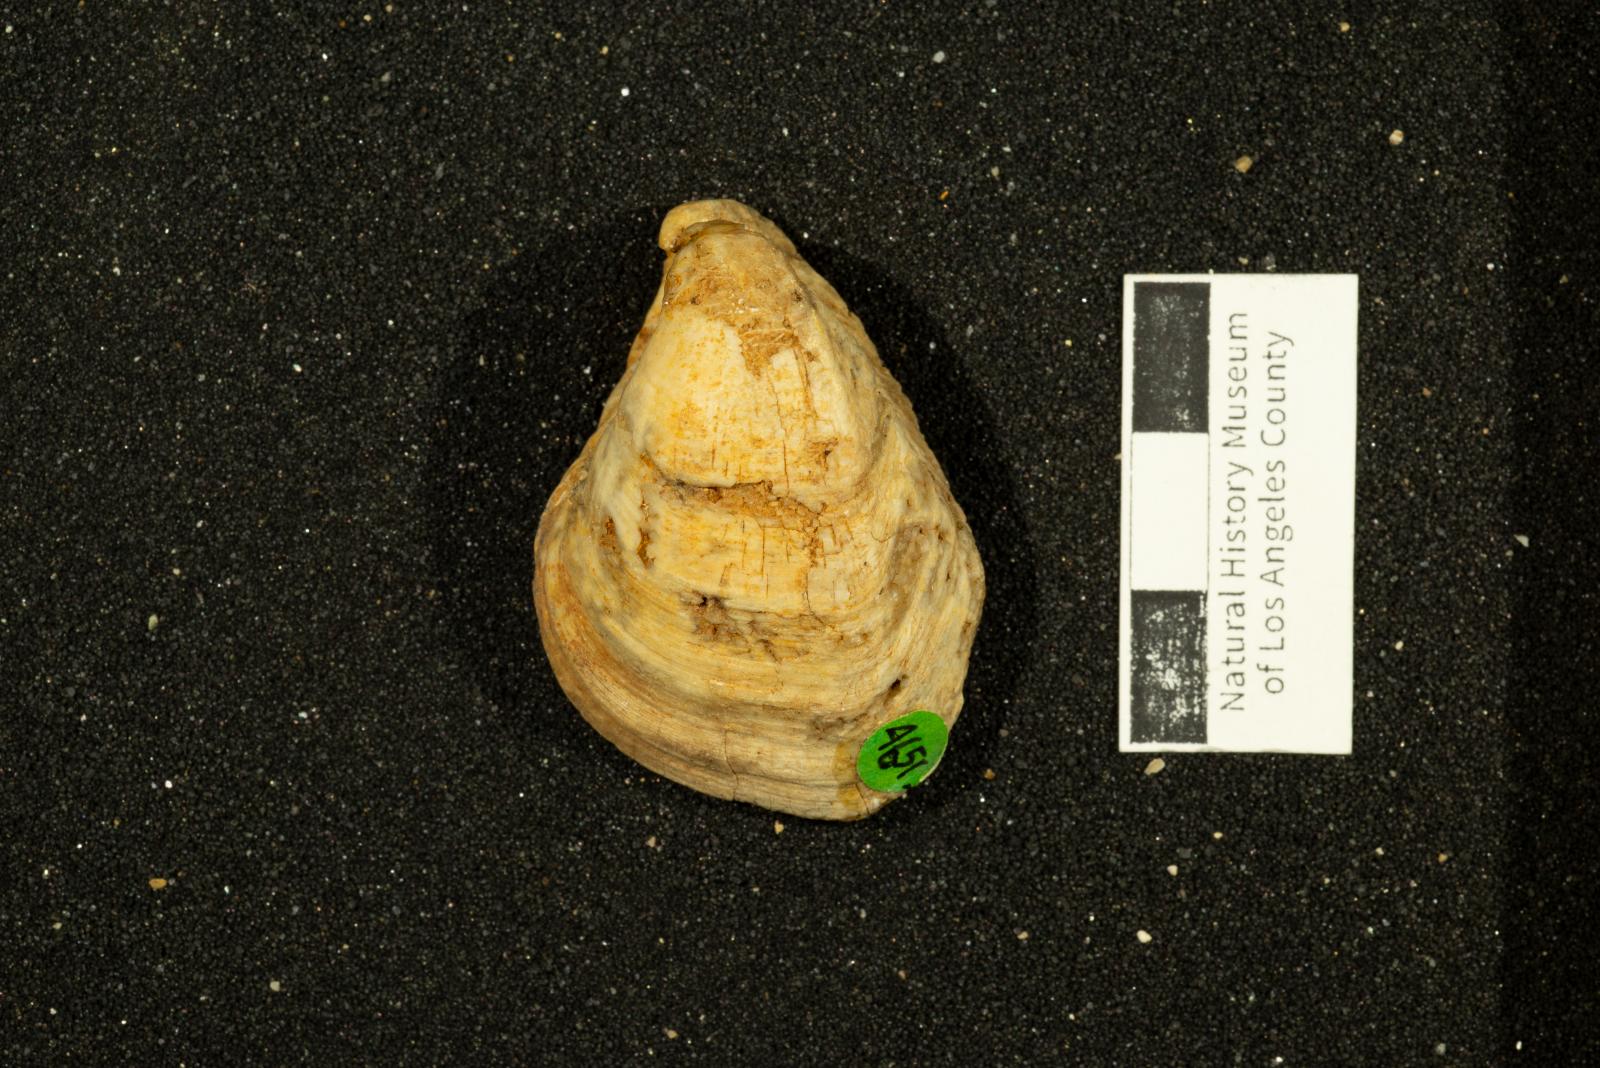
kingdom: Animalia
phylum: Mollusca
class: Bivalvia
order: Carditida
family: Astartidae
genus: Opis
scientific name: Opis popenoei
